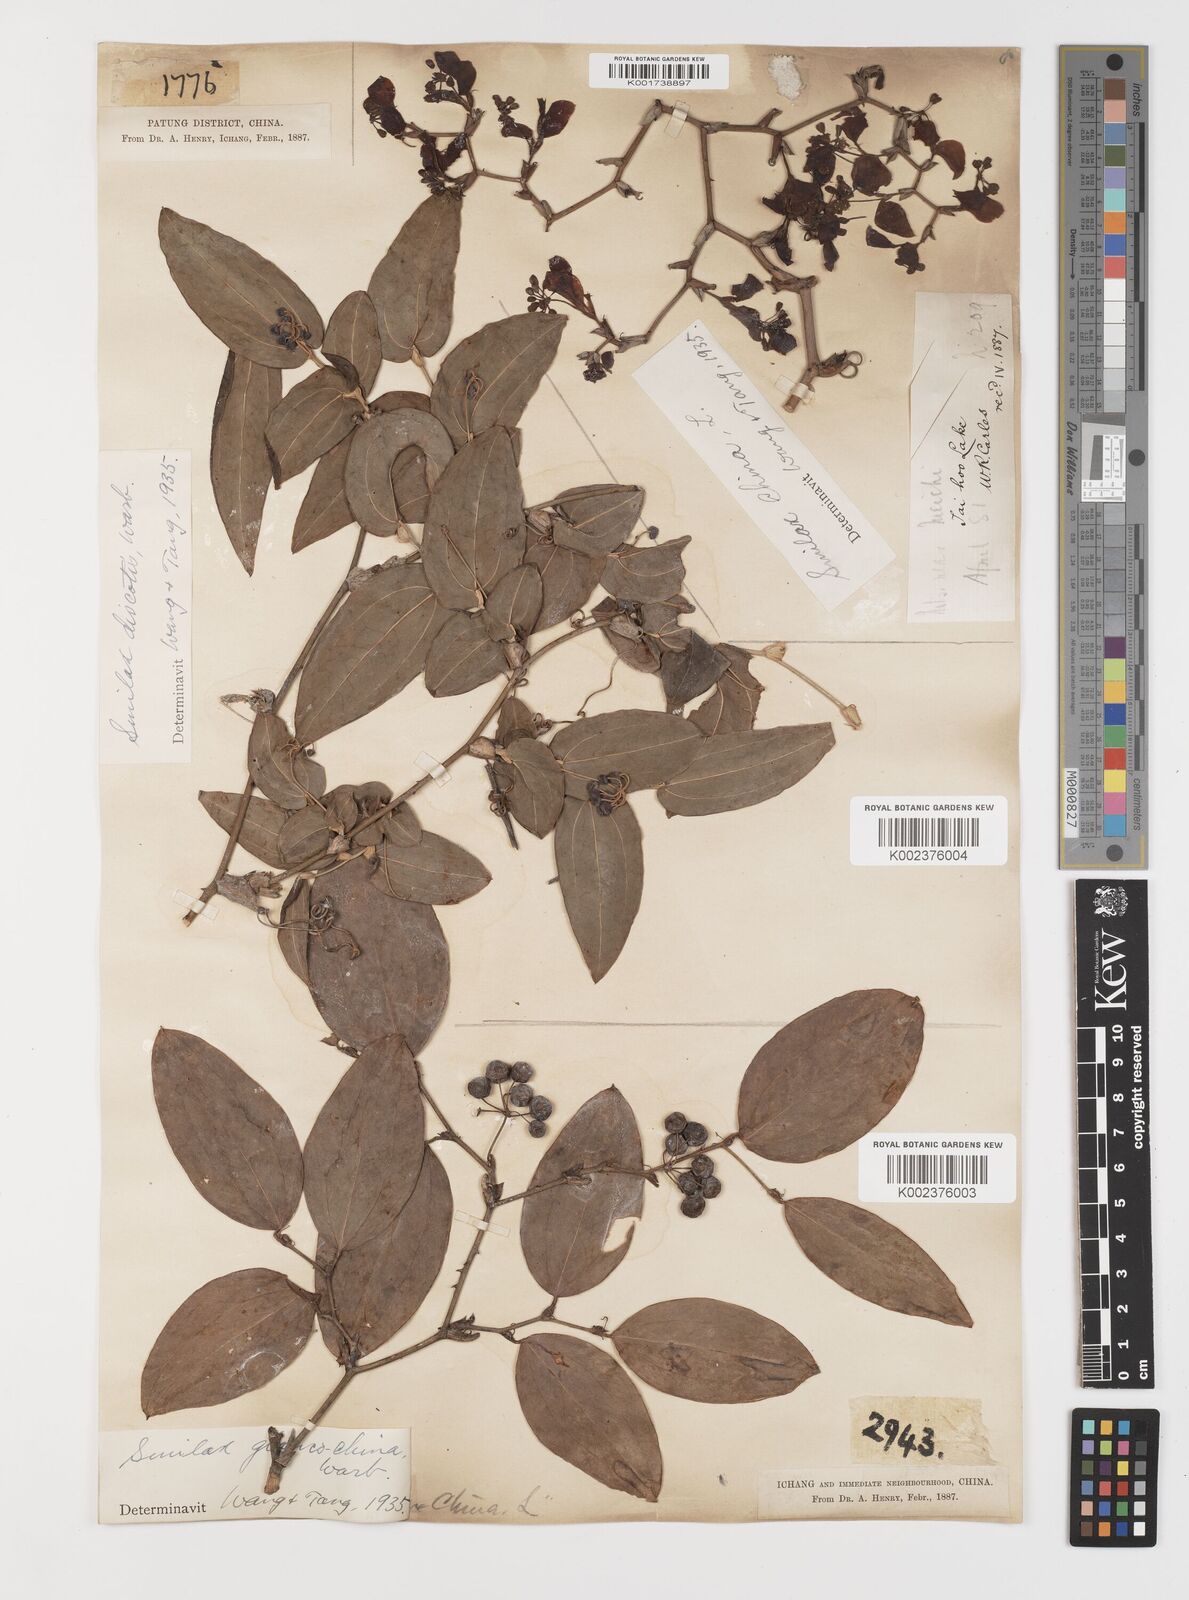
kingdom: Plantae
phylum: Tracheophyta
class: Liliopsida
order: Liliales
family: Smilacaceae
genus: Smilax
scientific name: Smilax discotis
